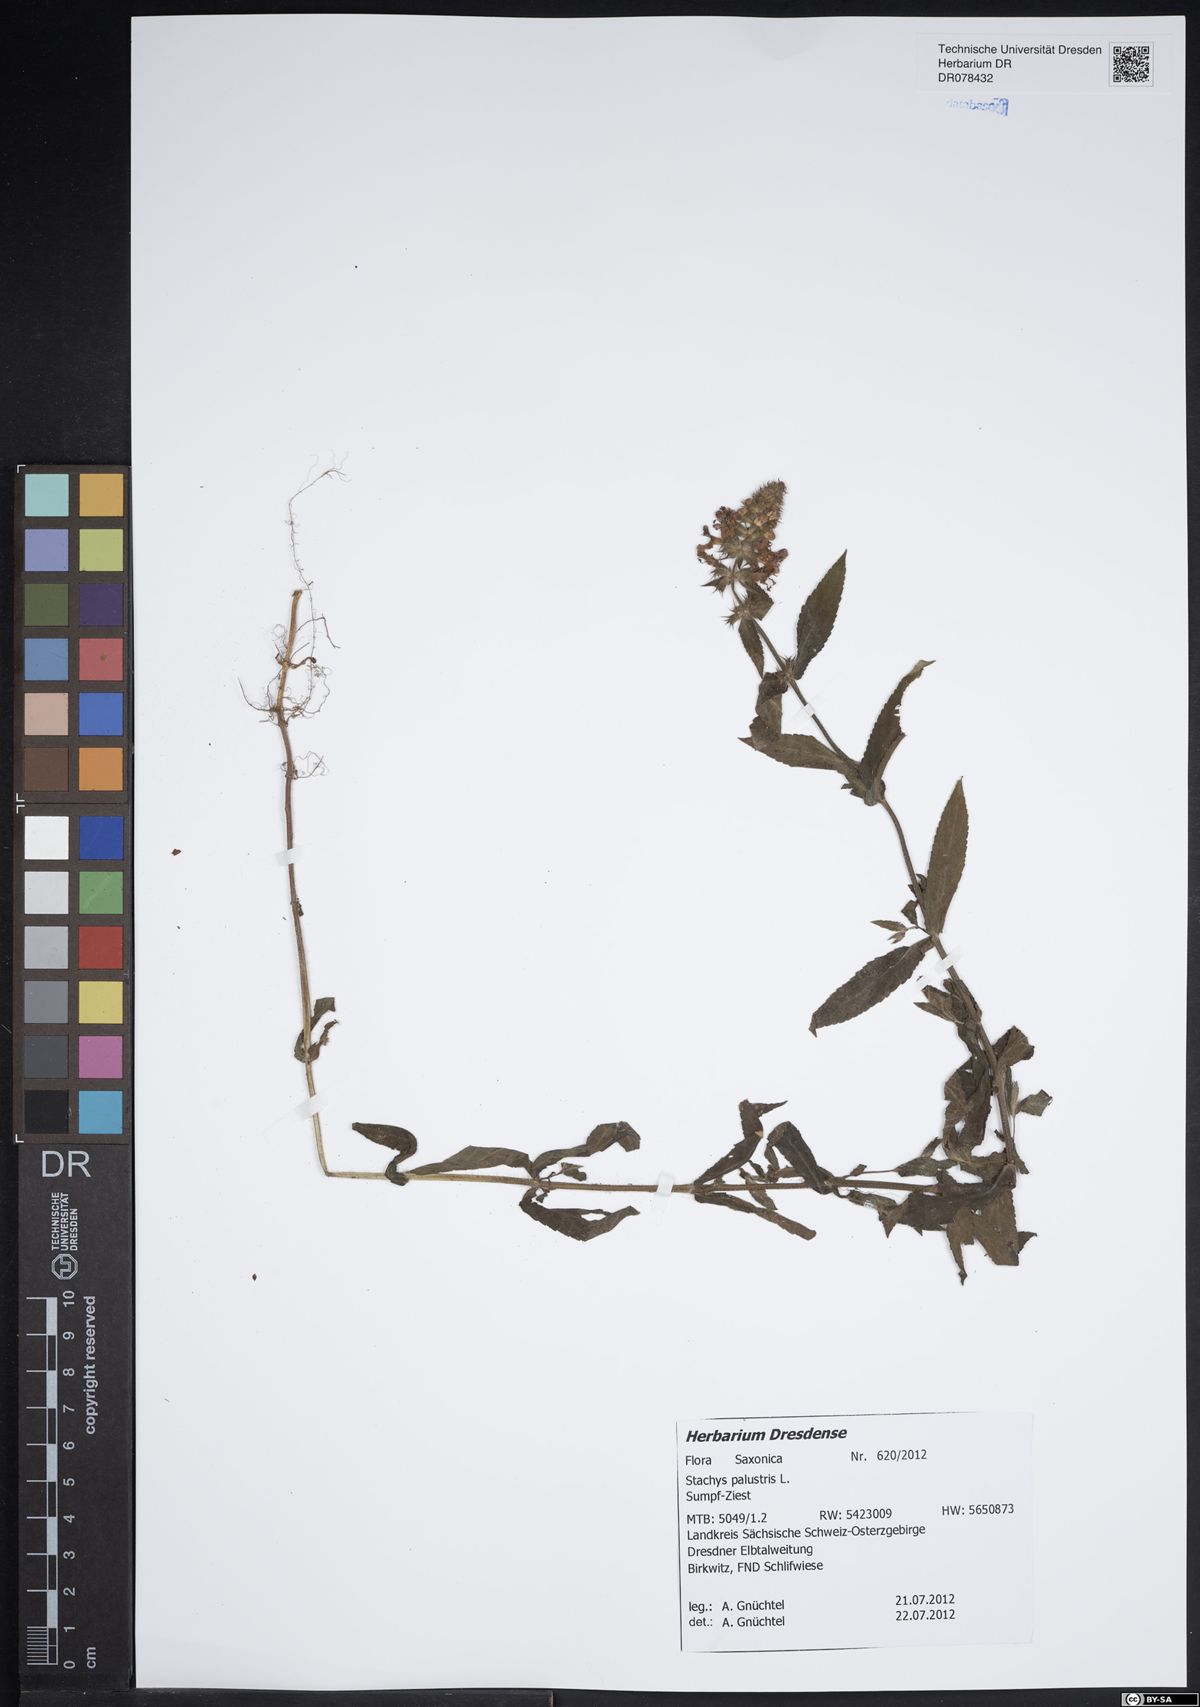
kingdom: Plantae
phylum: Tracheophyta
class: Magnoliopsida
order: Lamiales
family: Lamiaceae
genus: Stachys
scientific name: Stachys palustris
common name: Marsh woundwort
